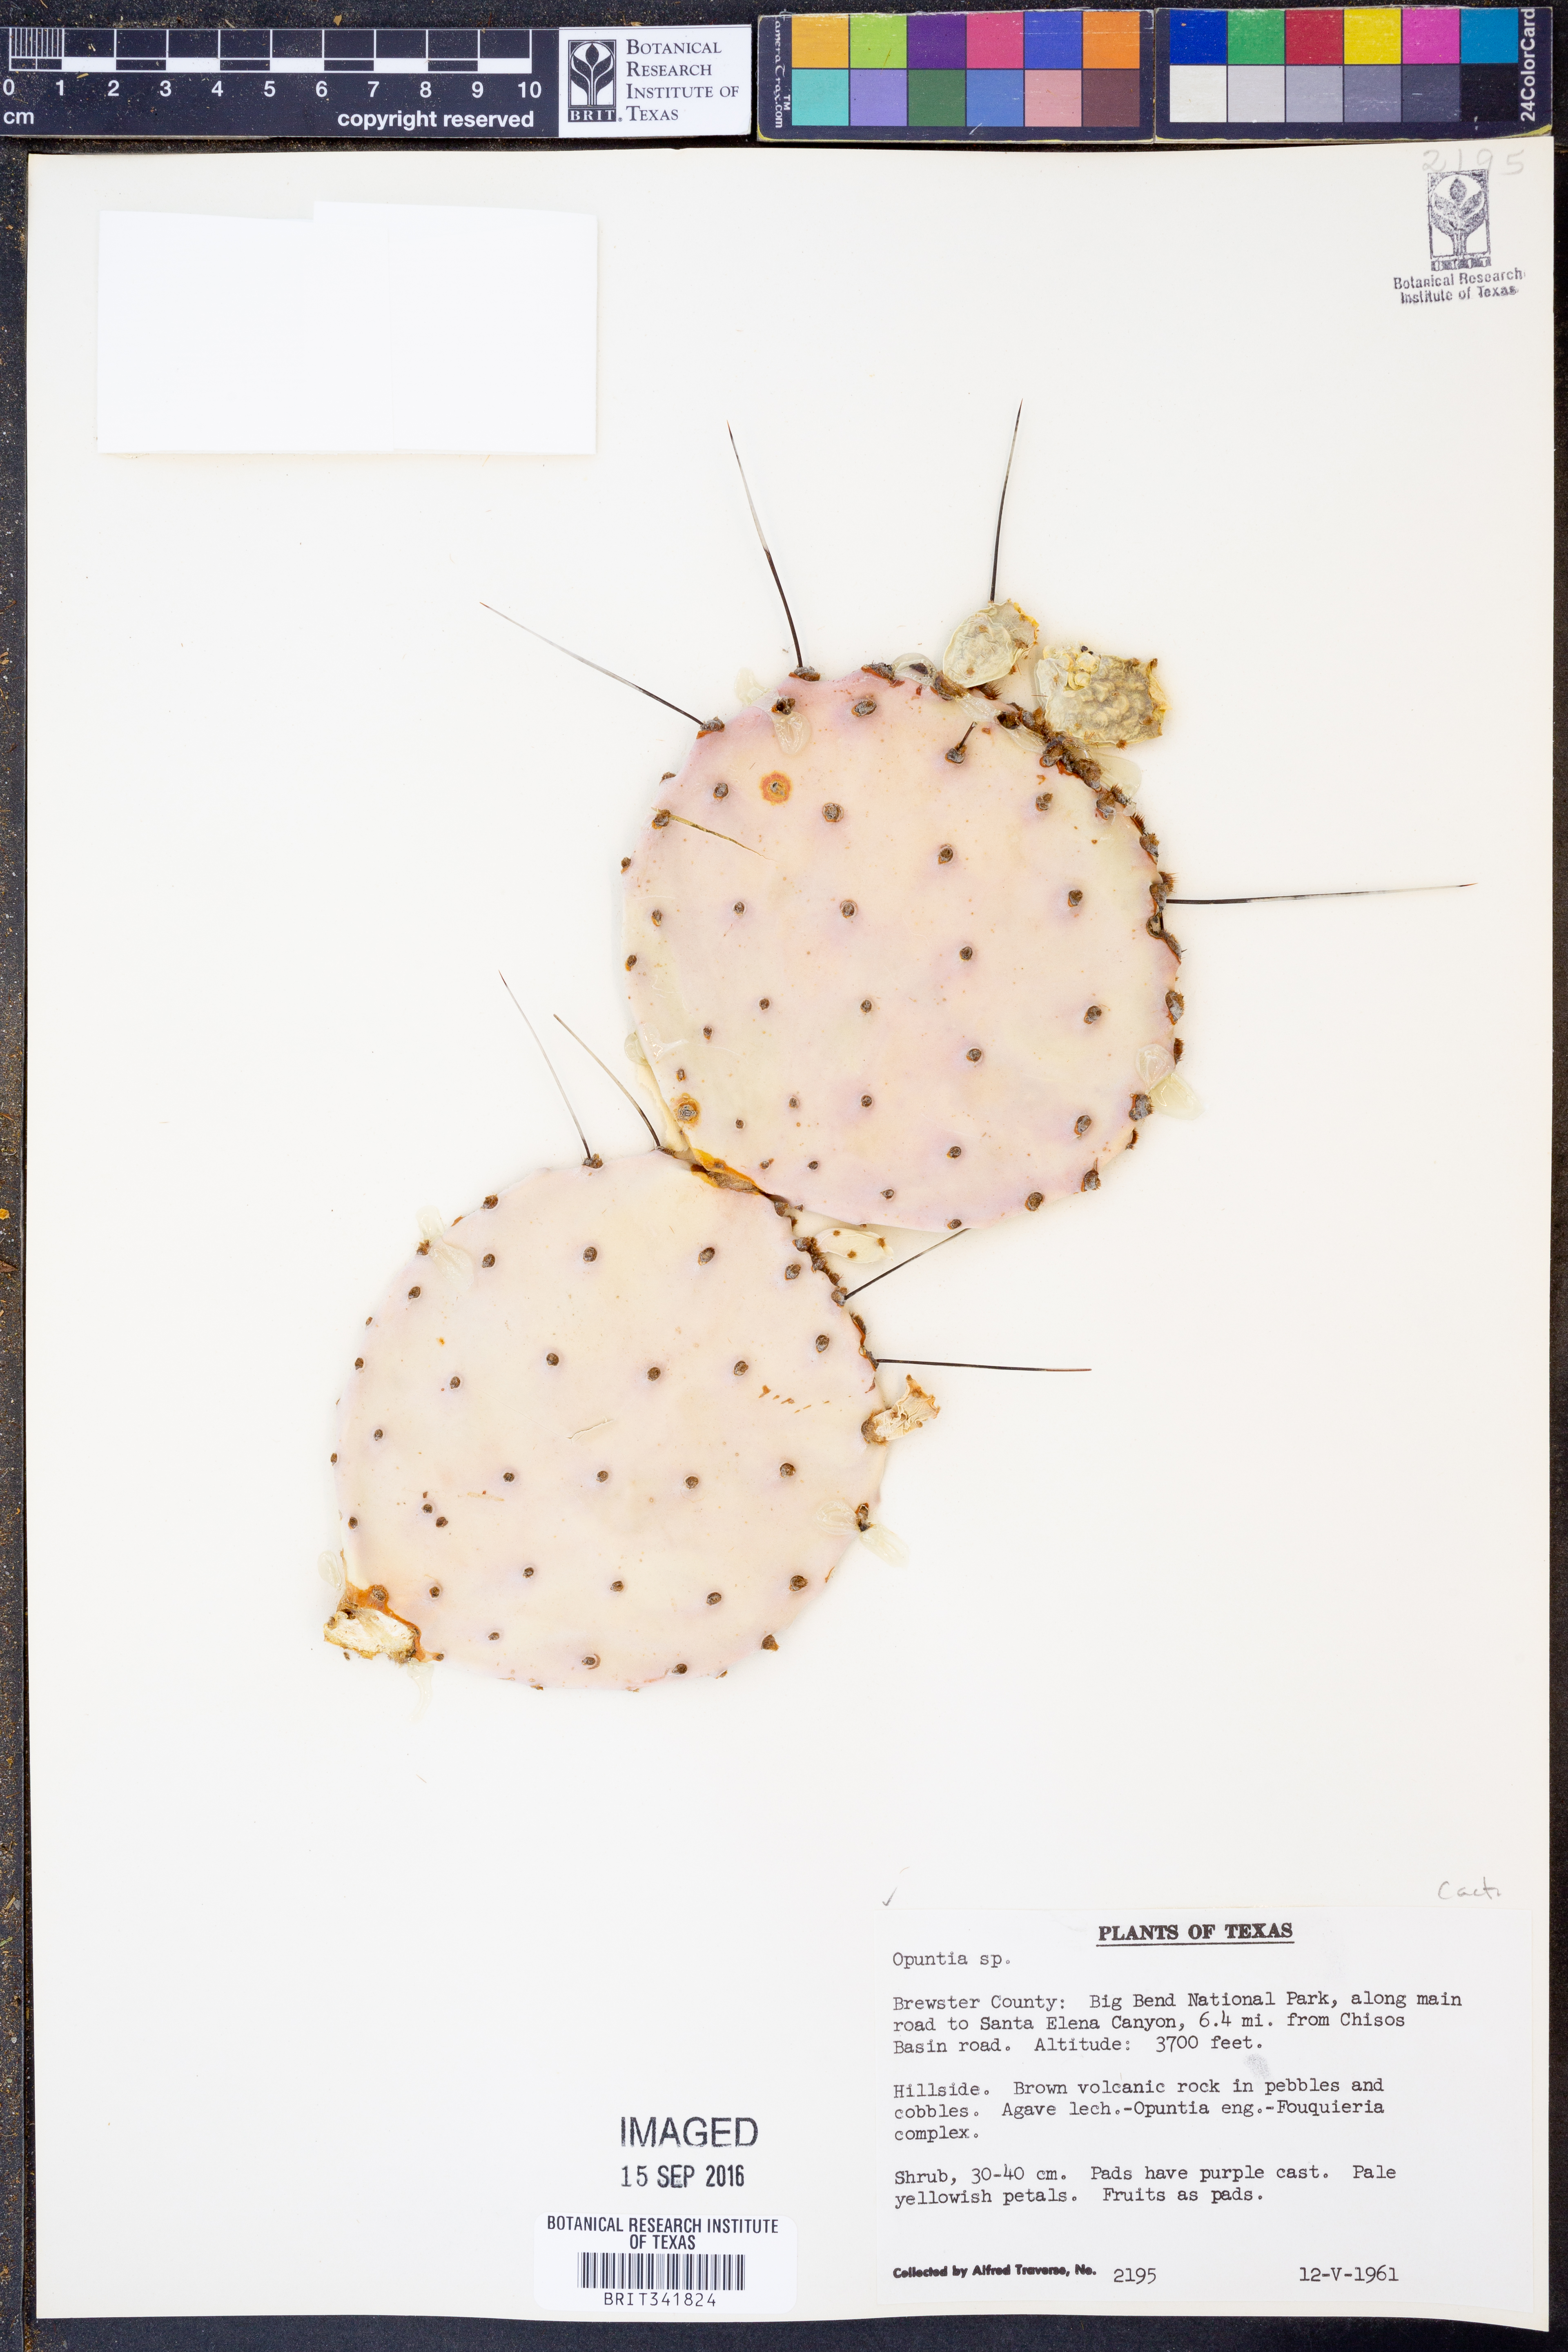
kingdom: Plantae
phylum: Tracheophyta
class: Magnoliopsida
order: Caryophyllales
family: Cactaceae
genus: Opuntia
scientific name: Opuntia macrocentra
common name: Purple prickly-pear
